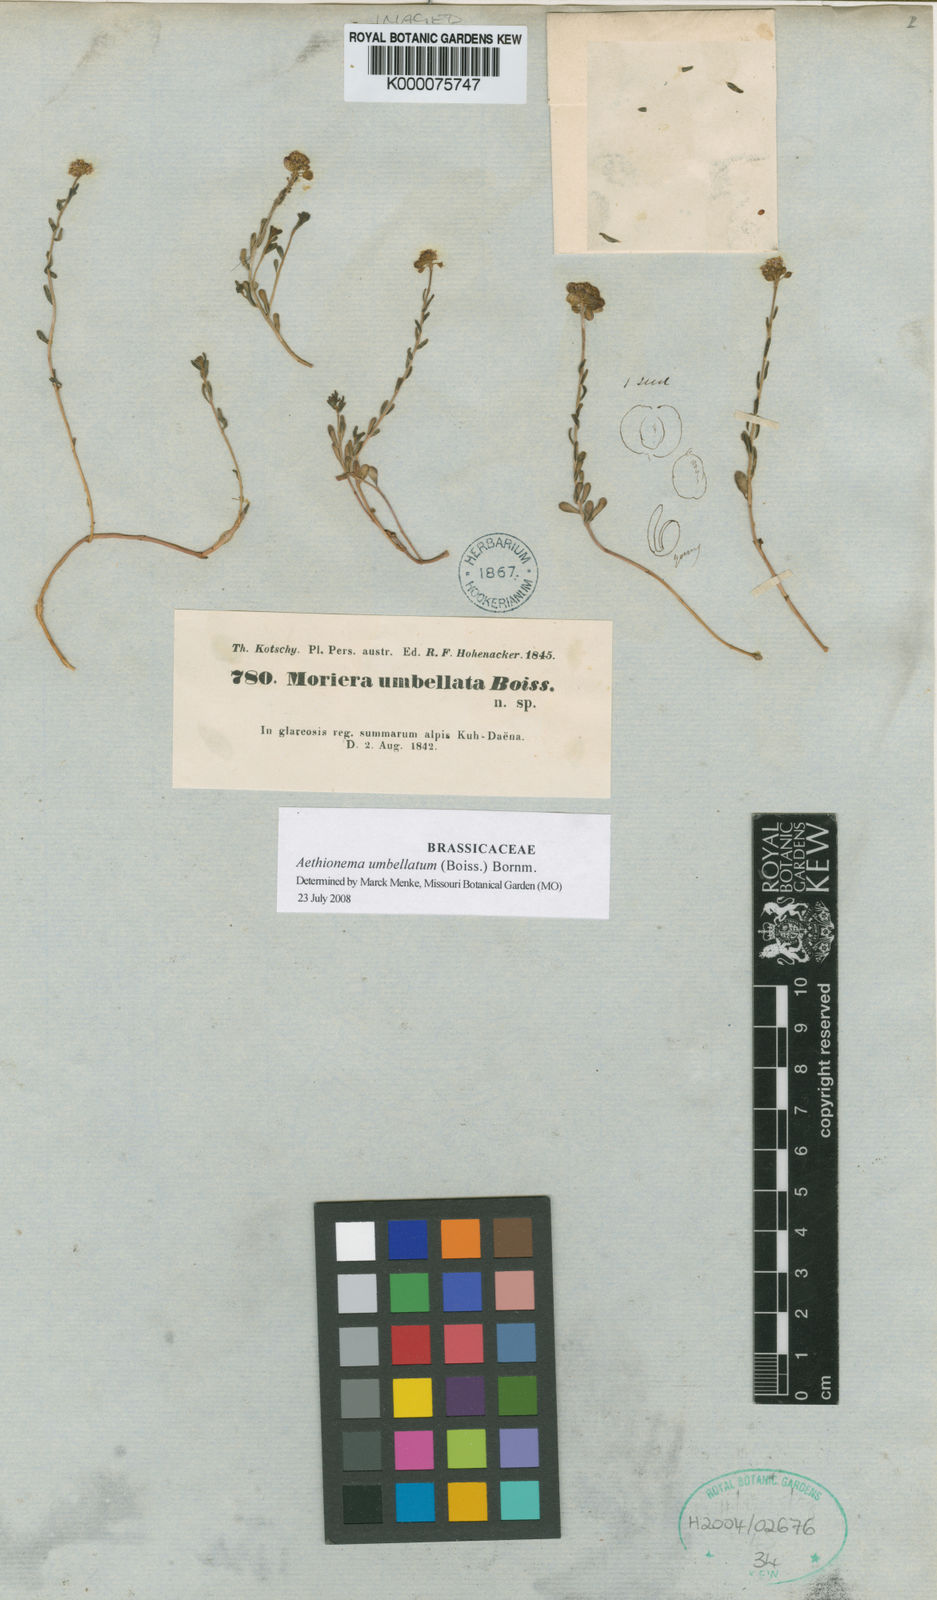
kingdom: Plantae
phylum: Tracheophyta
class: Magnoliopsida
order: Brassicales
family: Brassicaceae
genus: Aethionema
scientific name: Aethionema
